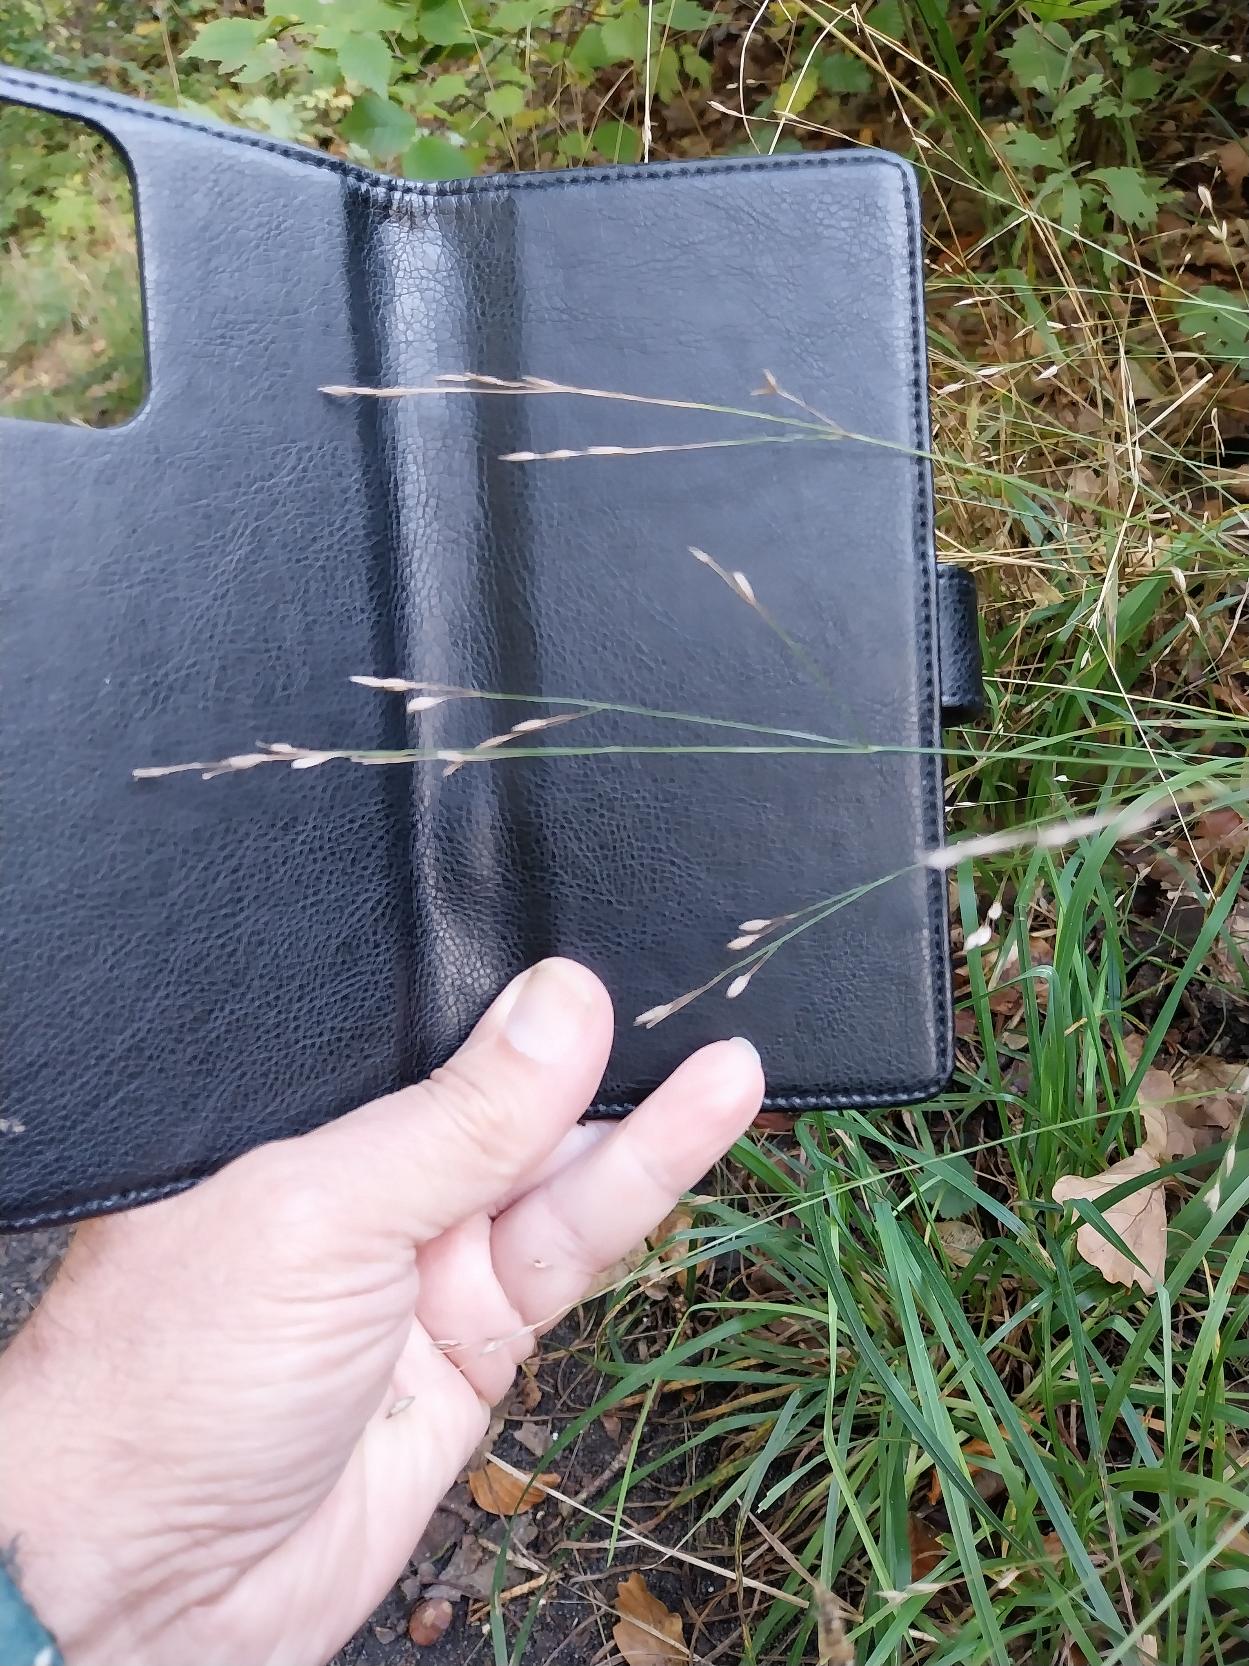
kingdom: Plantae
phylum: Tracheophyta
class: Liliopsida
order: Poales
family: Poaceae
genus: Melica
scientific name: Melica uniflora
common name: Enblomstret flitteraks
